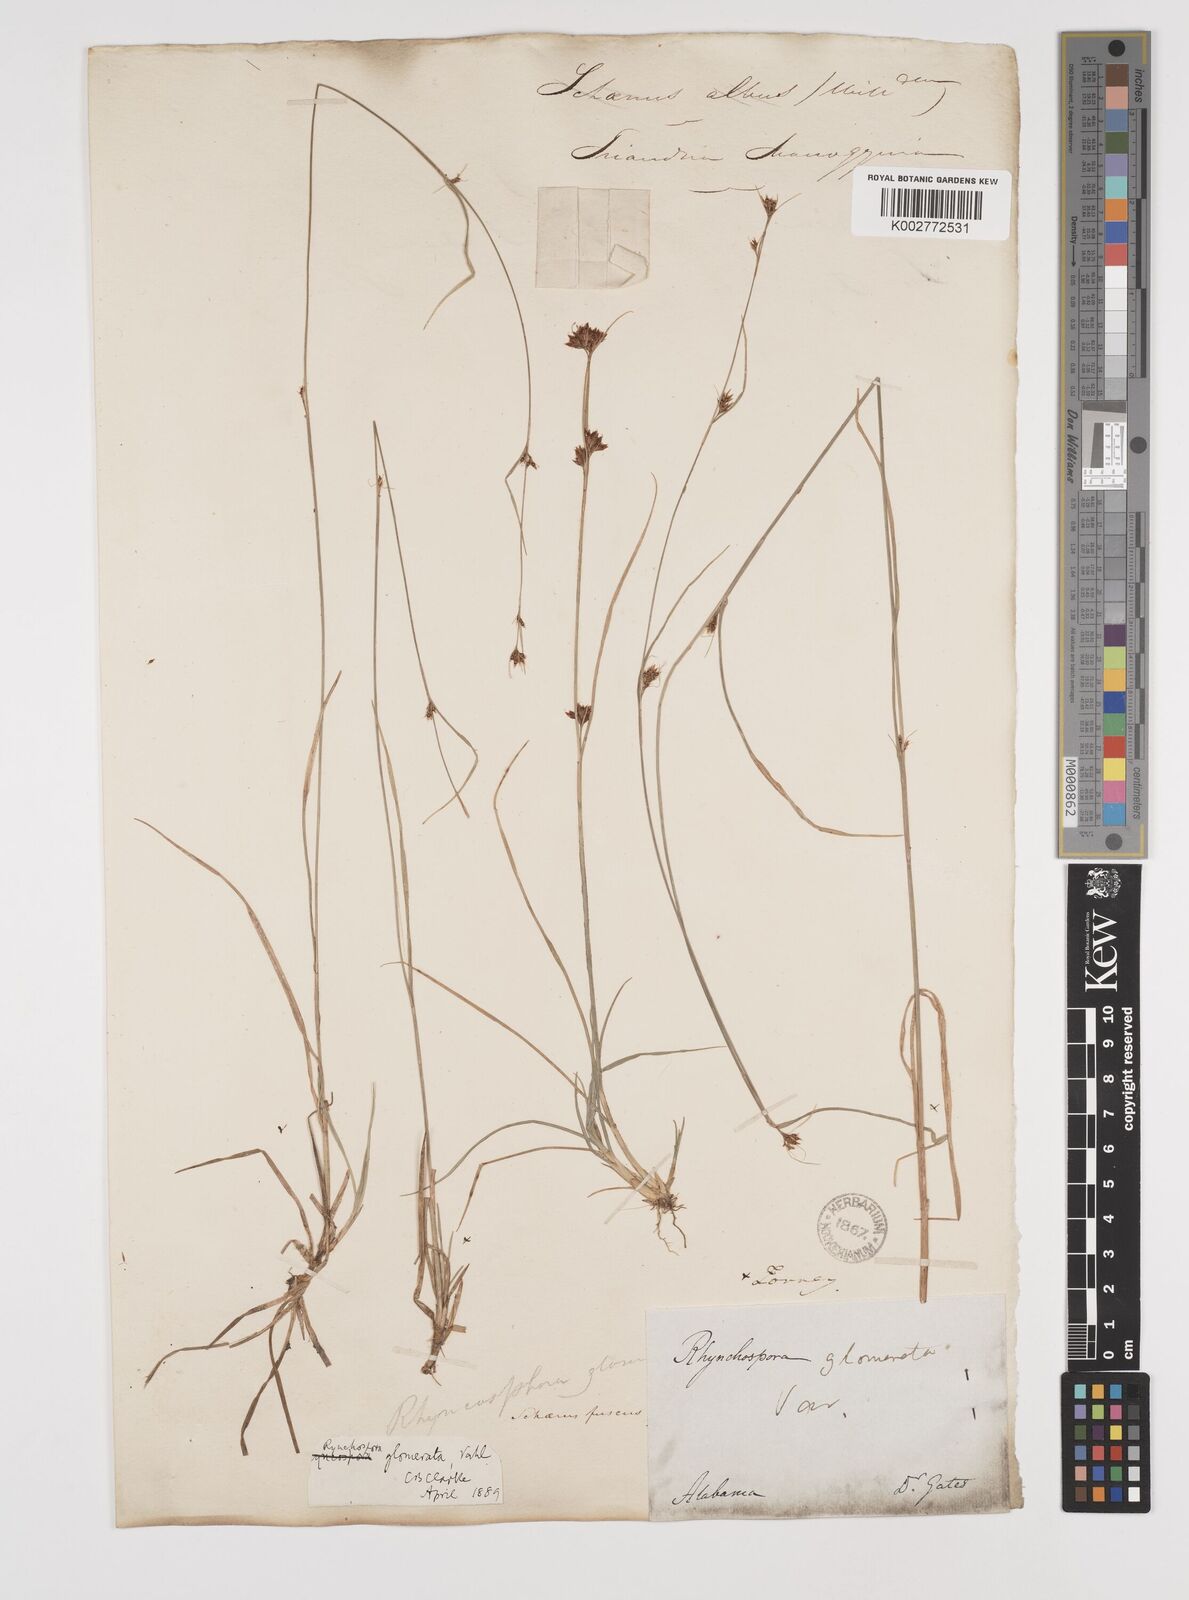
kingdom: Plantae
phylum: Tracheophyta
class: Liliopsida
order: Poales
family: Cyperaceae
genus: Rhynchospora
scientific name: Rhynchospora fusca
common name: Brown beak-sedge
